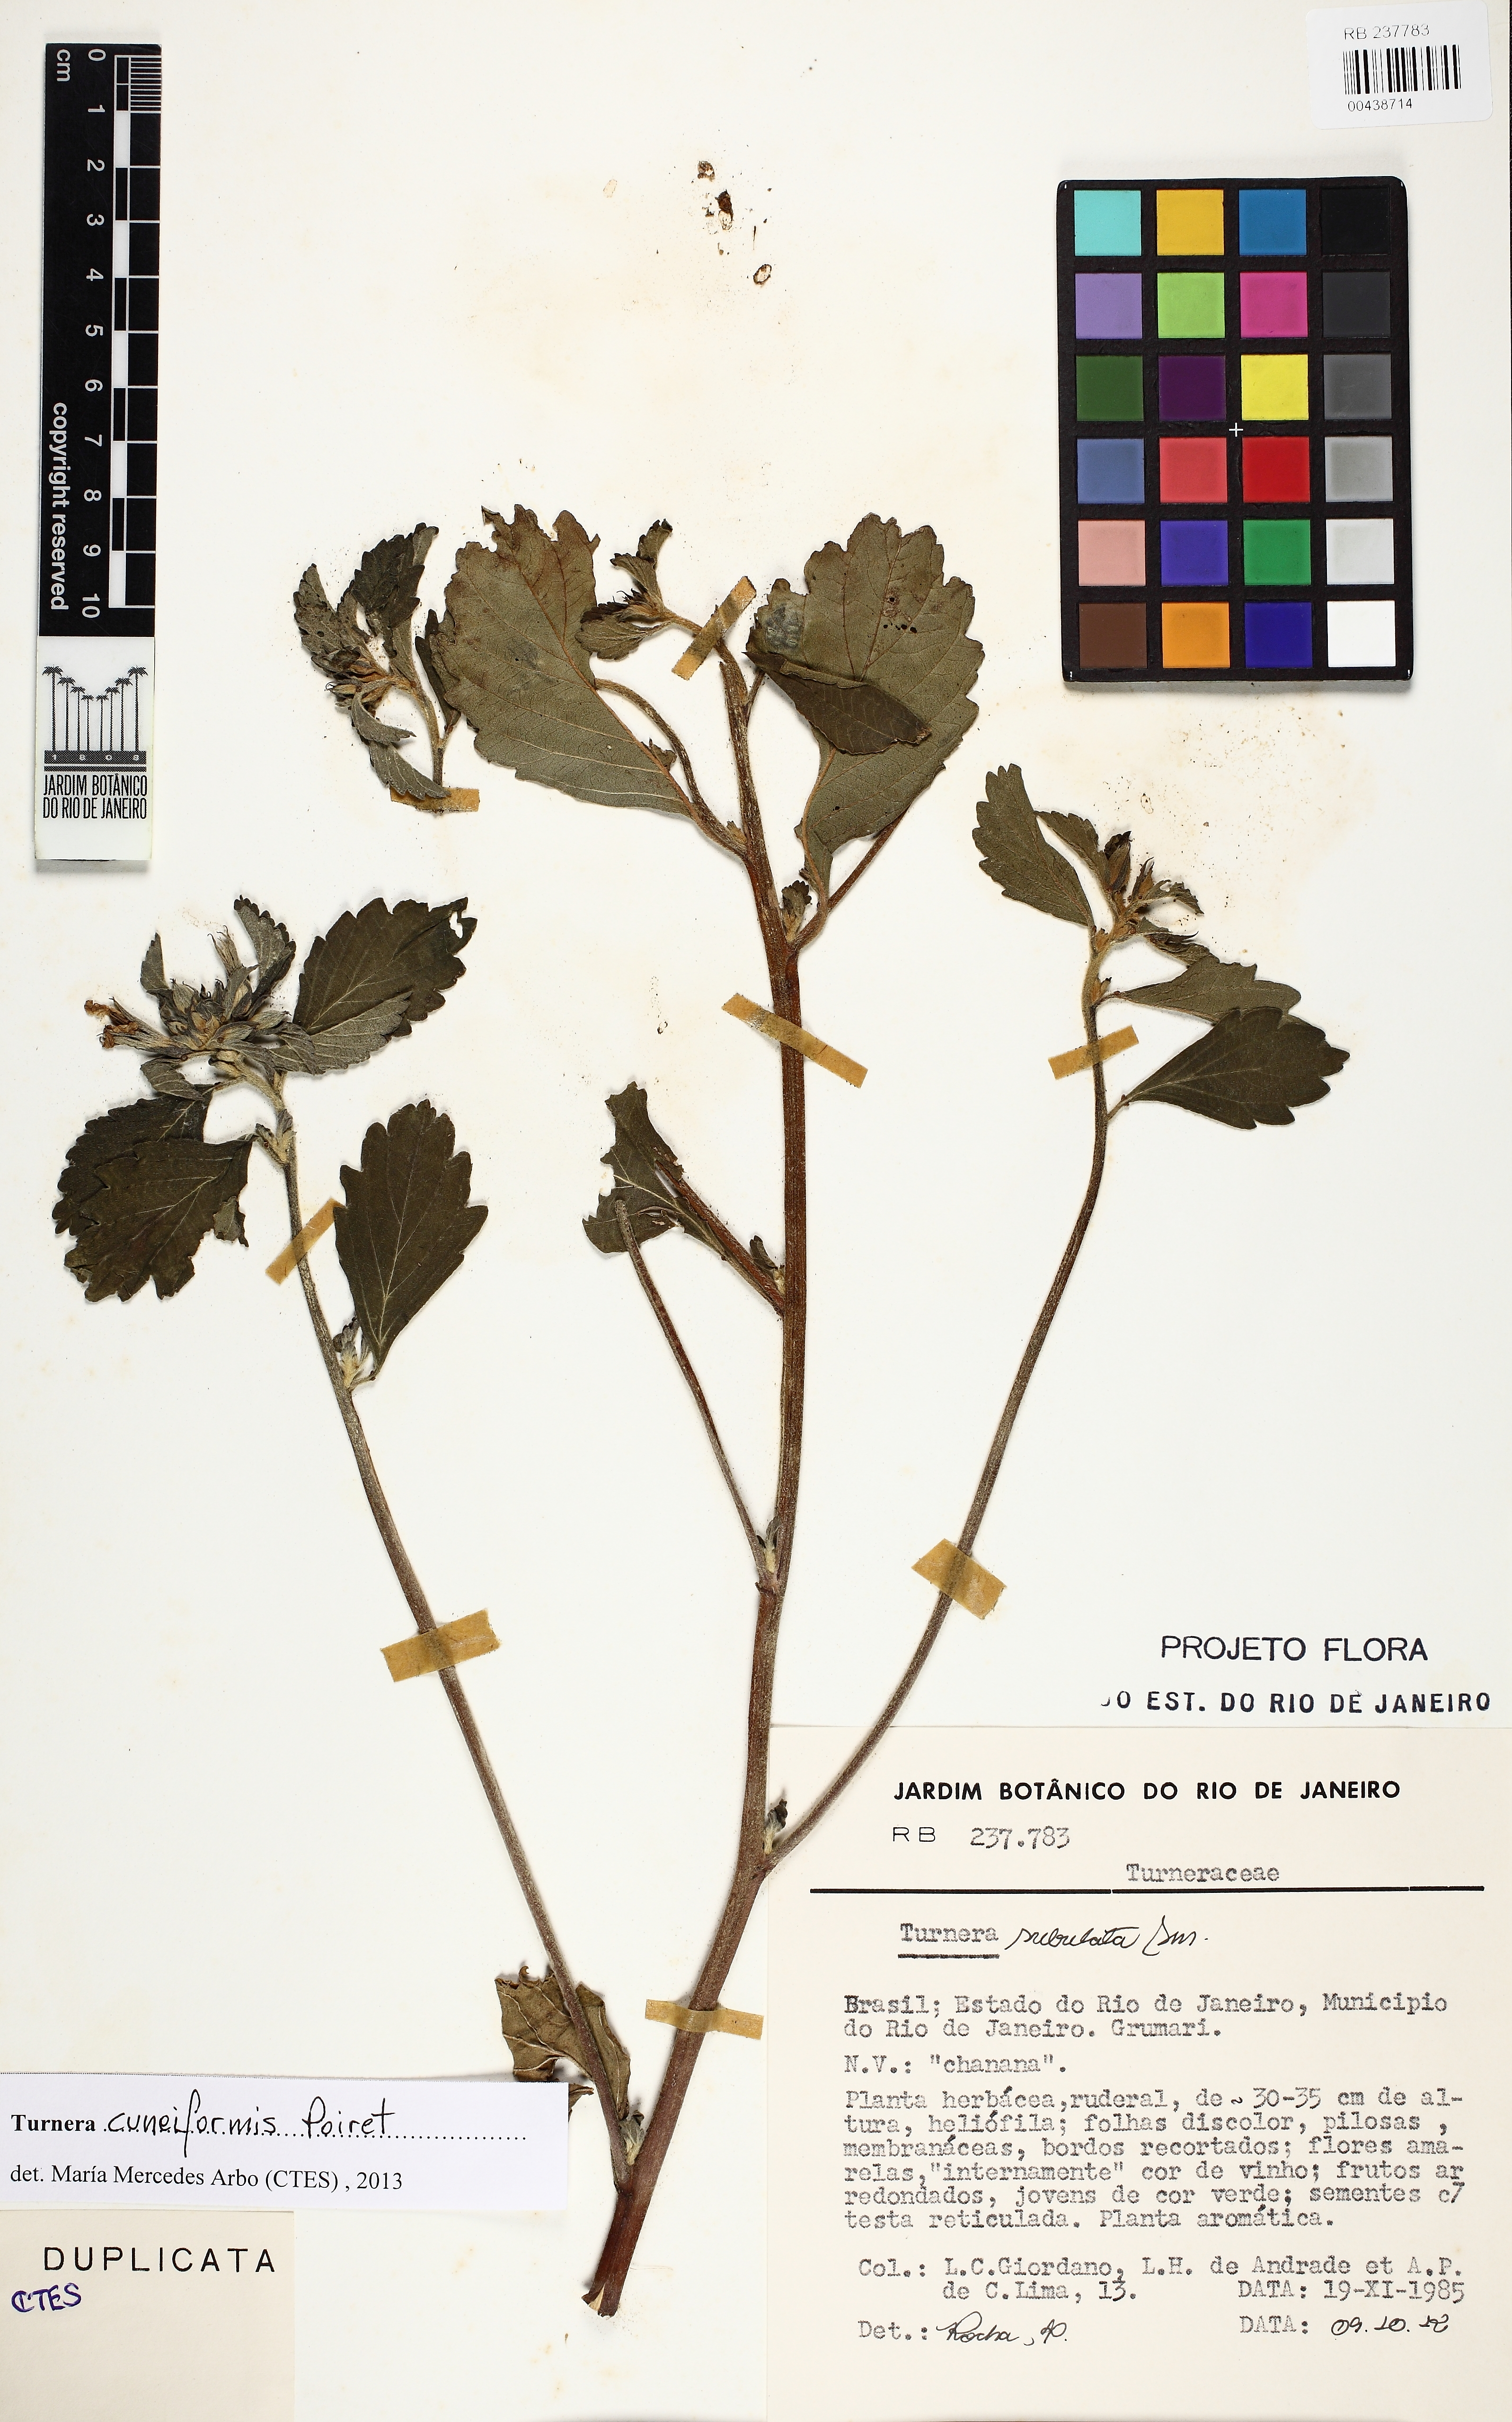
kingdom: Plantae
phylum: Tracheophyta
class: Magnoliopsida
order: Malpighiales
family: Turneraceae
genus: Turnera
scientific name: Turnera cuneiformis
